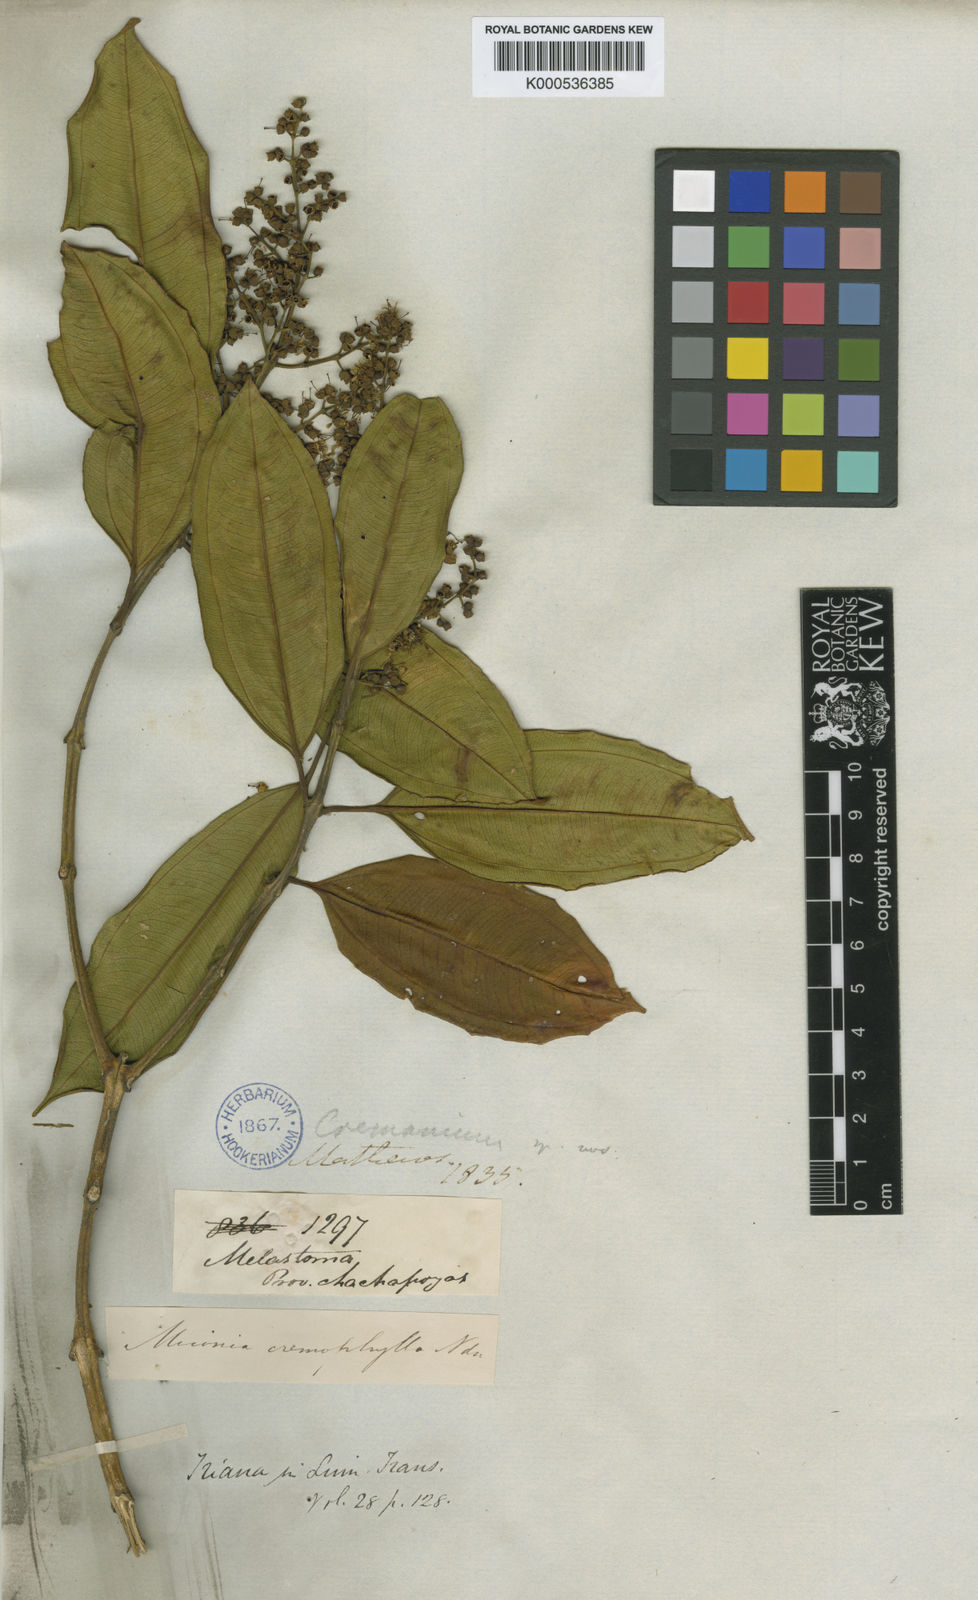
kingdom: Plantae
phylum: Tracheophyta
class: Magnoliopsida
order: Myrtales
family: Melastomataceae
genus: Miconia
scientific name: Miconia cremophylla
